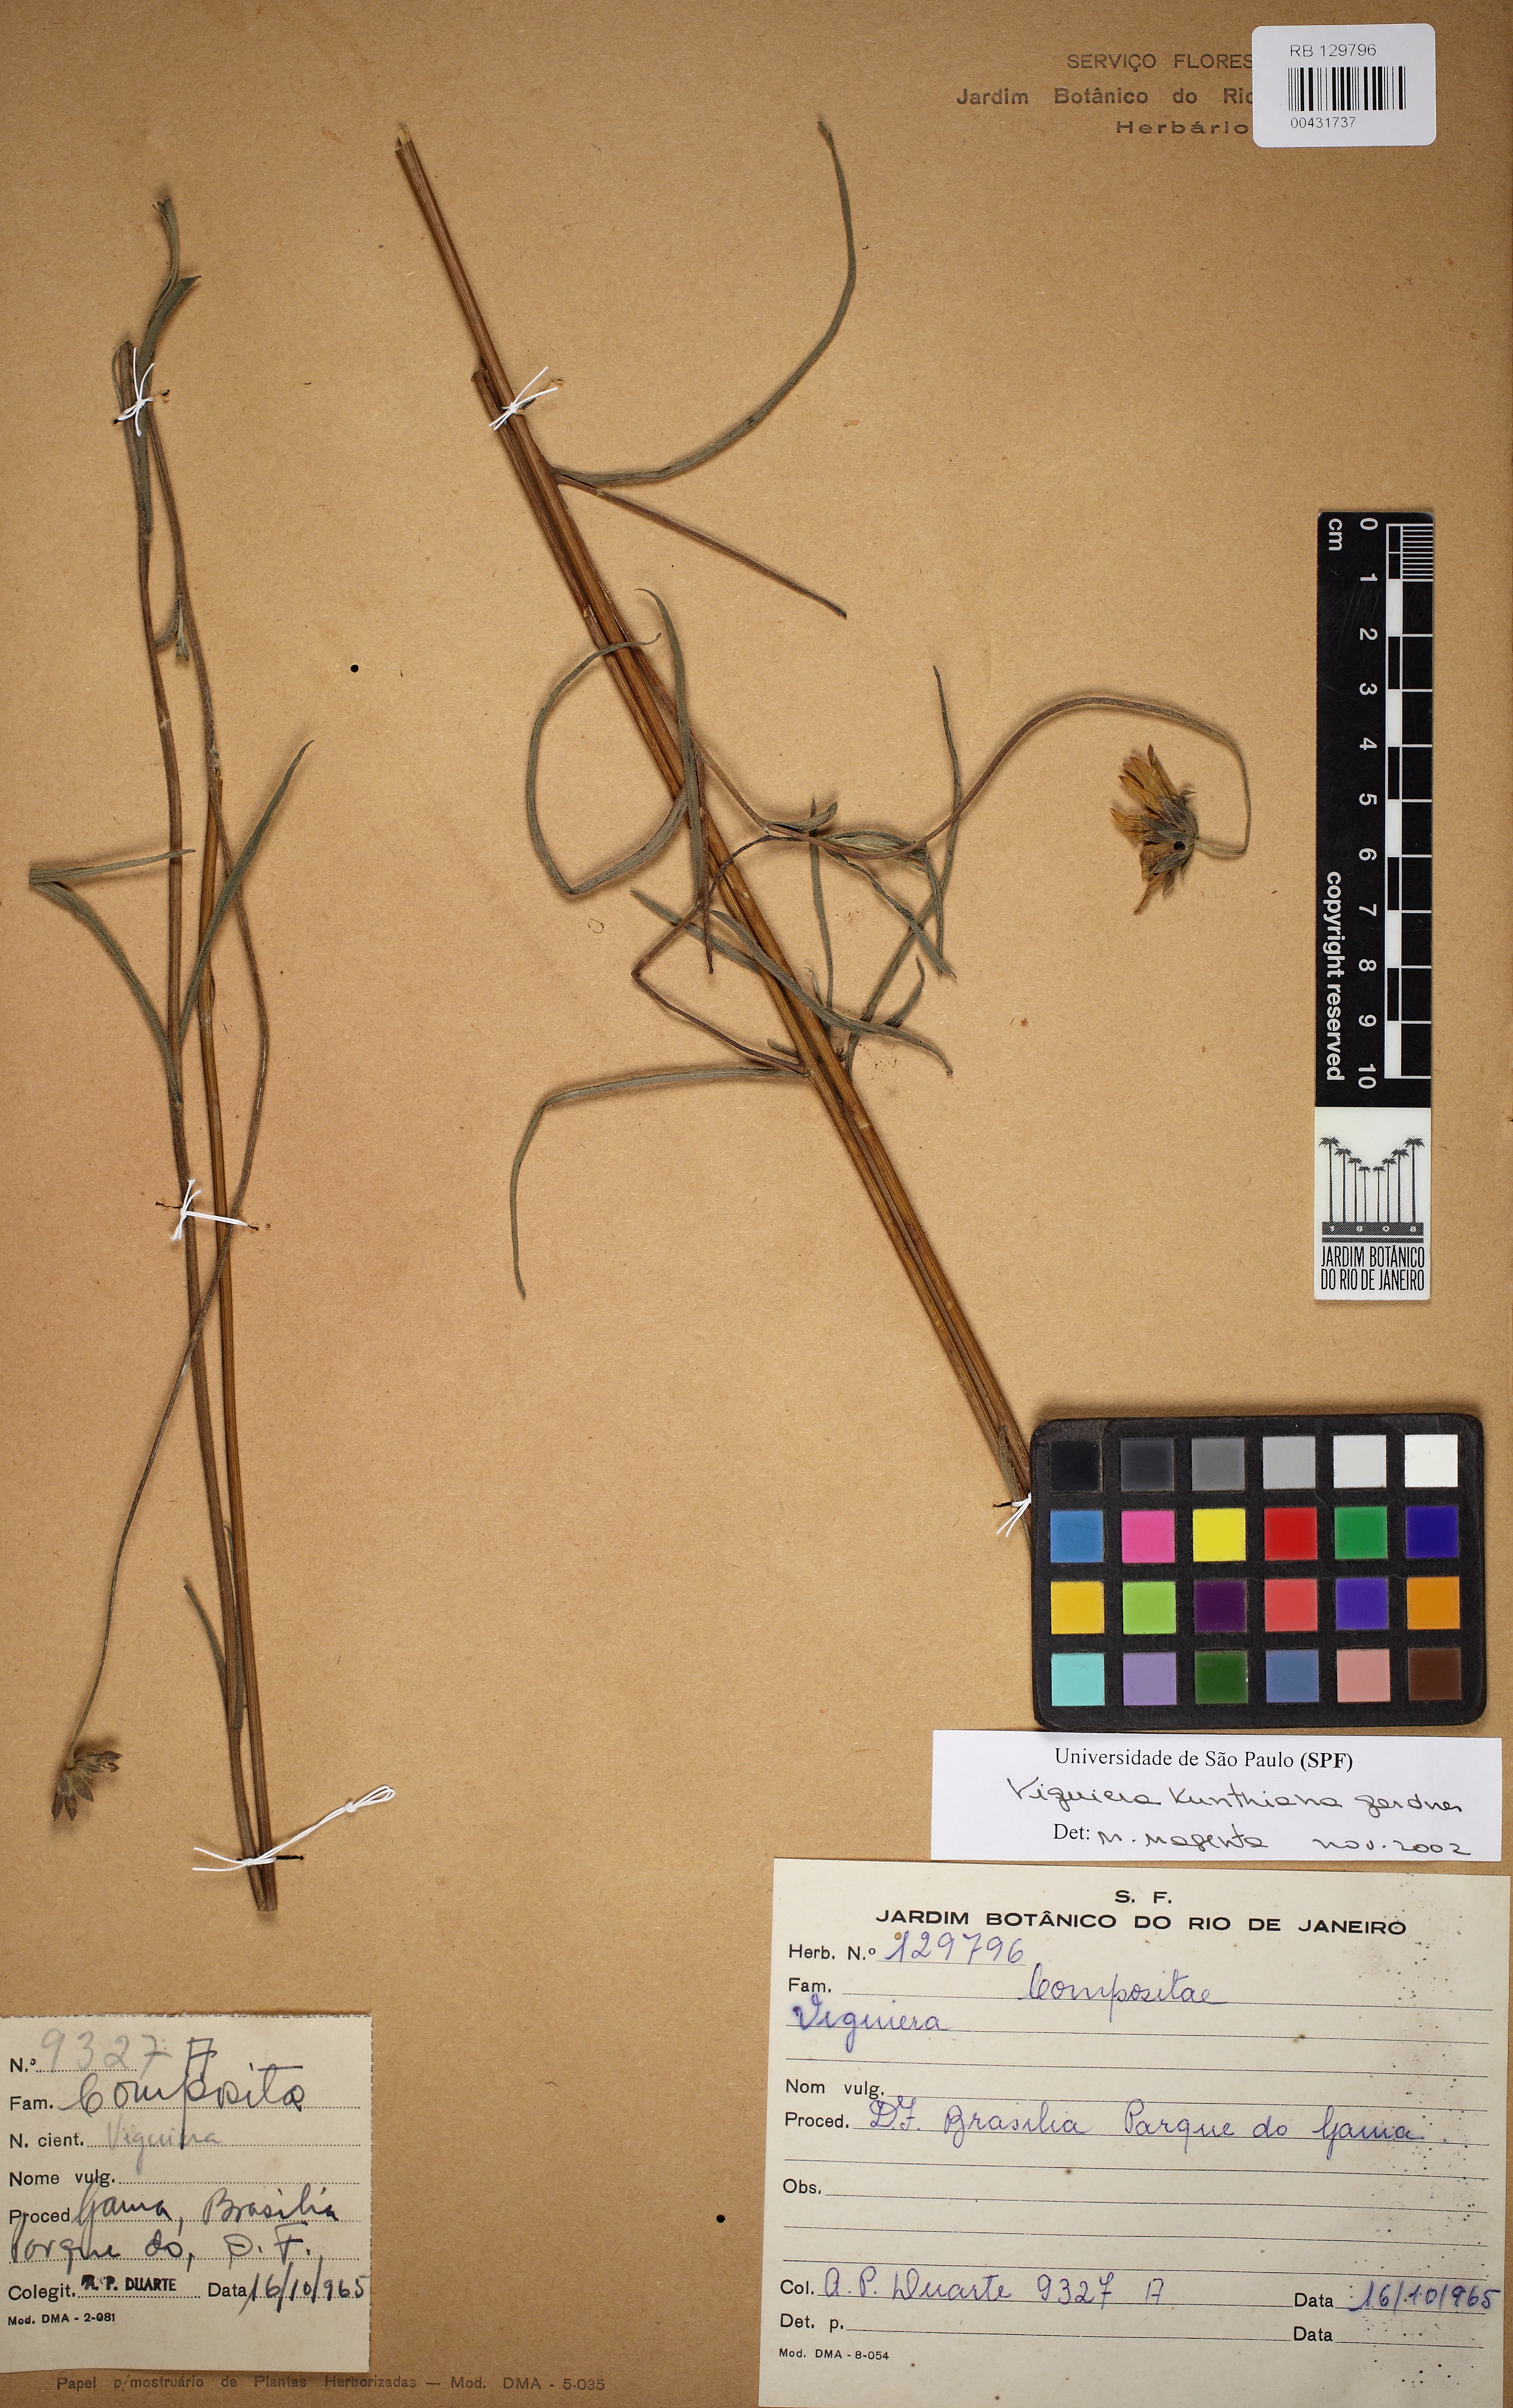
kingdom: Plantae
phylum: Tracheophyta
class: Magnoliopsida
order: Asterales
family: Asteraceae
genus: Aldama
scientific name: Aldama kunthiana
